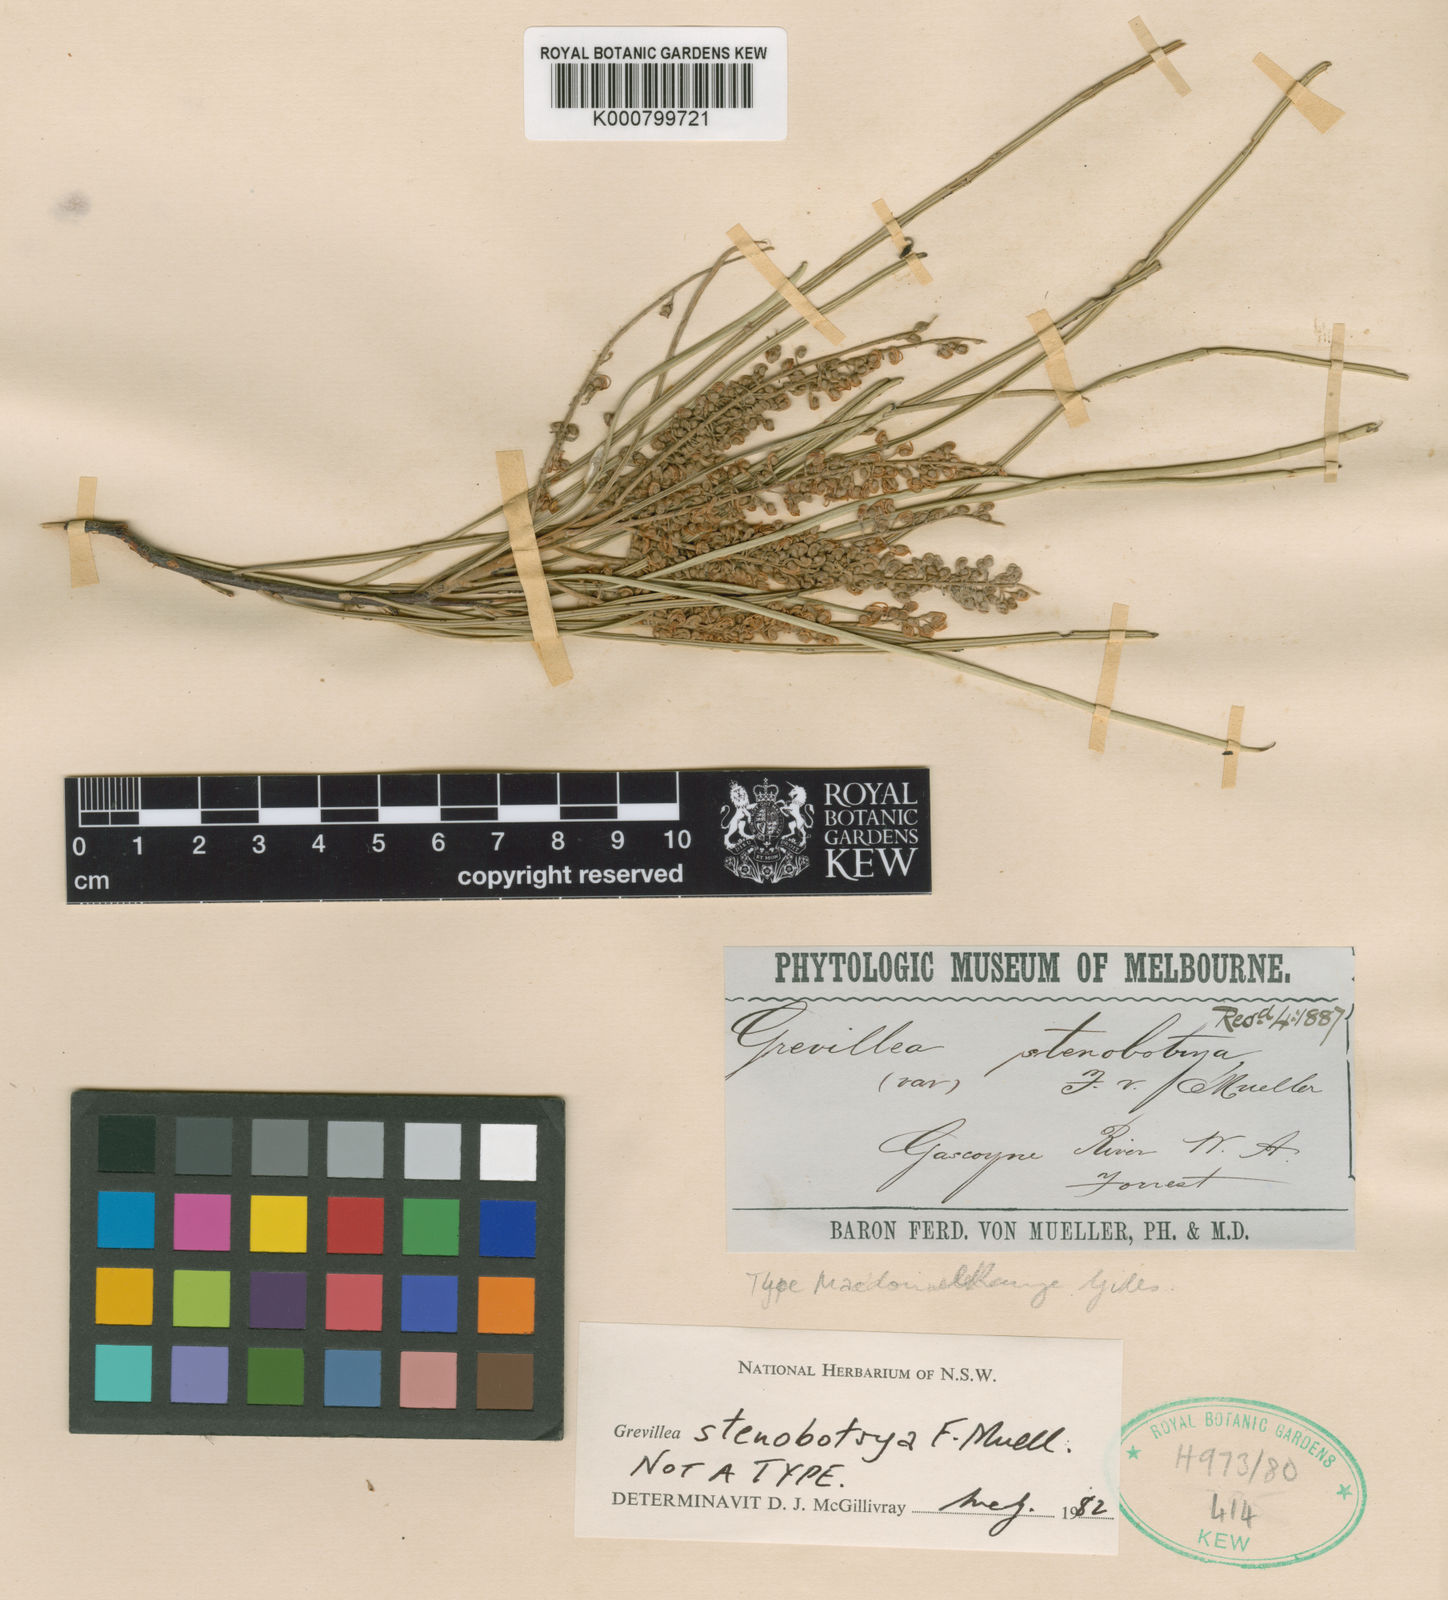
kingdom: Plantae
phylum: Tracheophyta
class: Magnoliopsida
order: Proteales
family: Proteaceae
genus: Grevillea
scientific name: Grevillea stenobotrya
